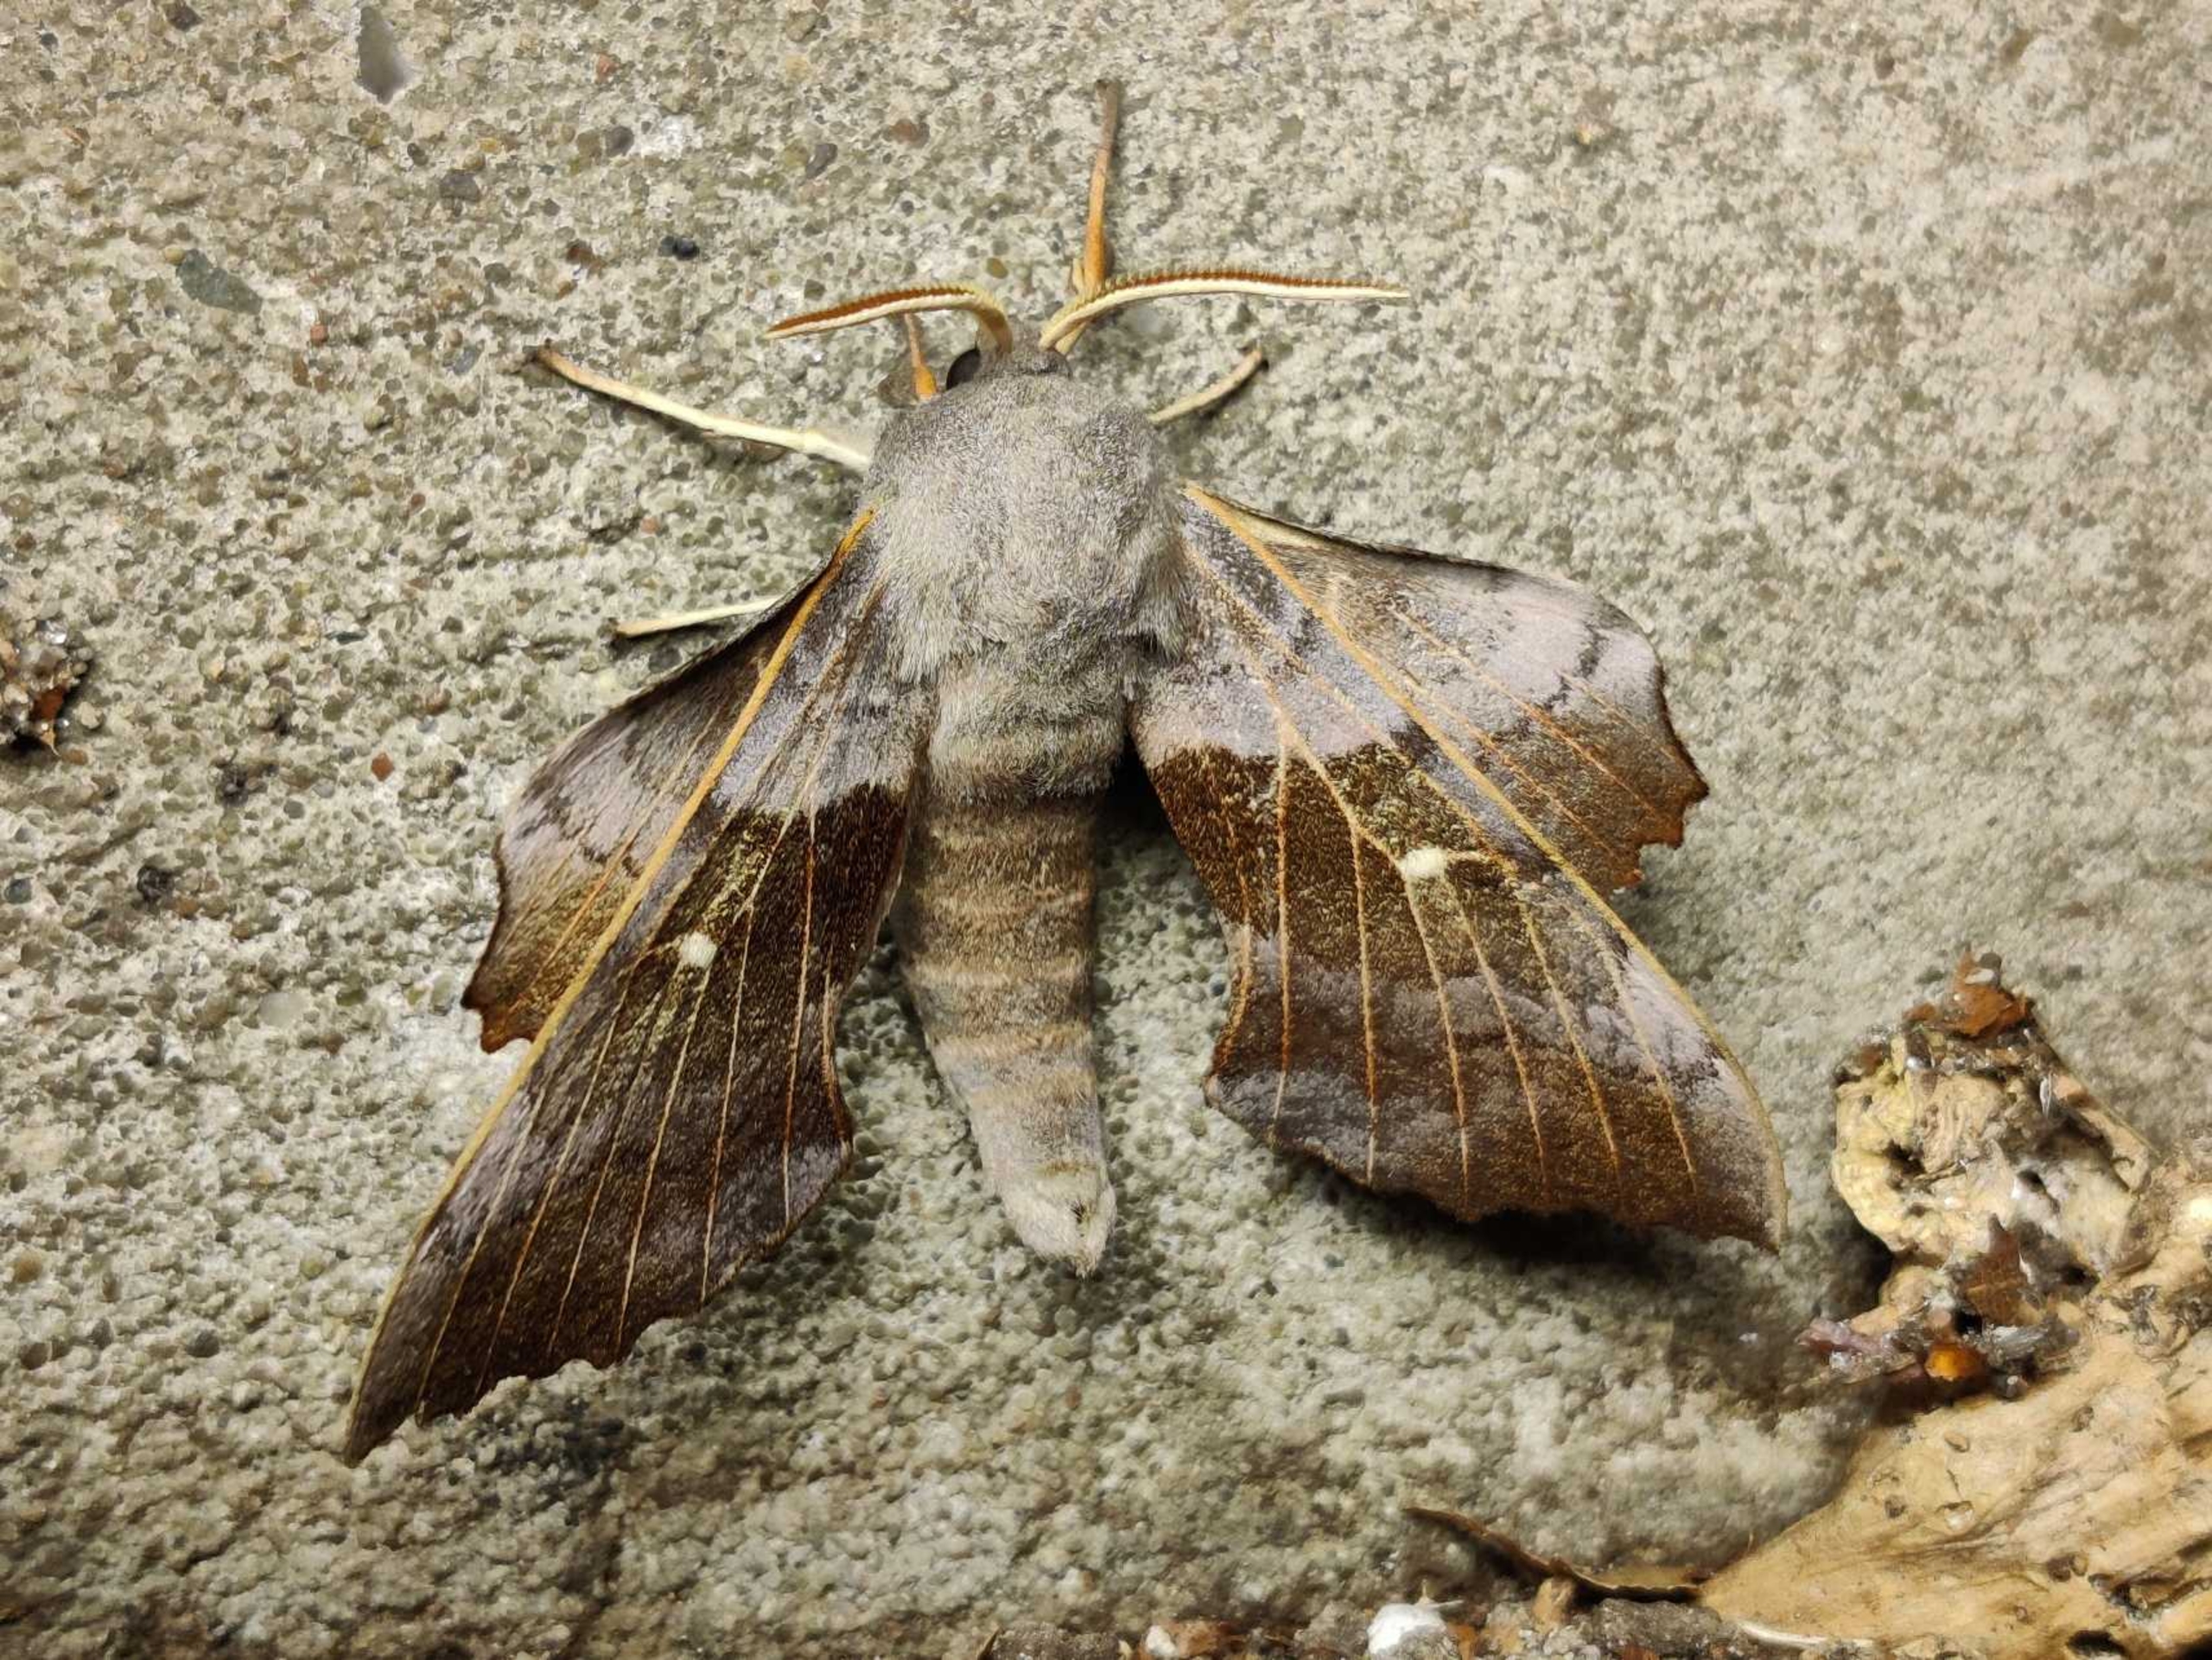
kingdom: Animalia
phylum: Arthropoda
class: Insecta
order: Lepidoptera
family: Sphingidae
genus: Laothoe
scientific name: Laothoe populi
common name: Poppelsværmer
